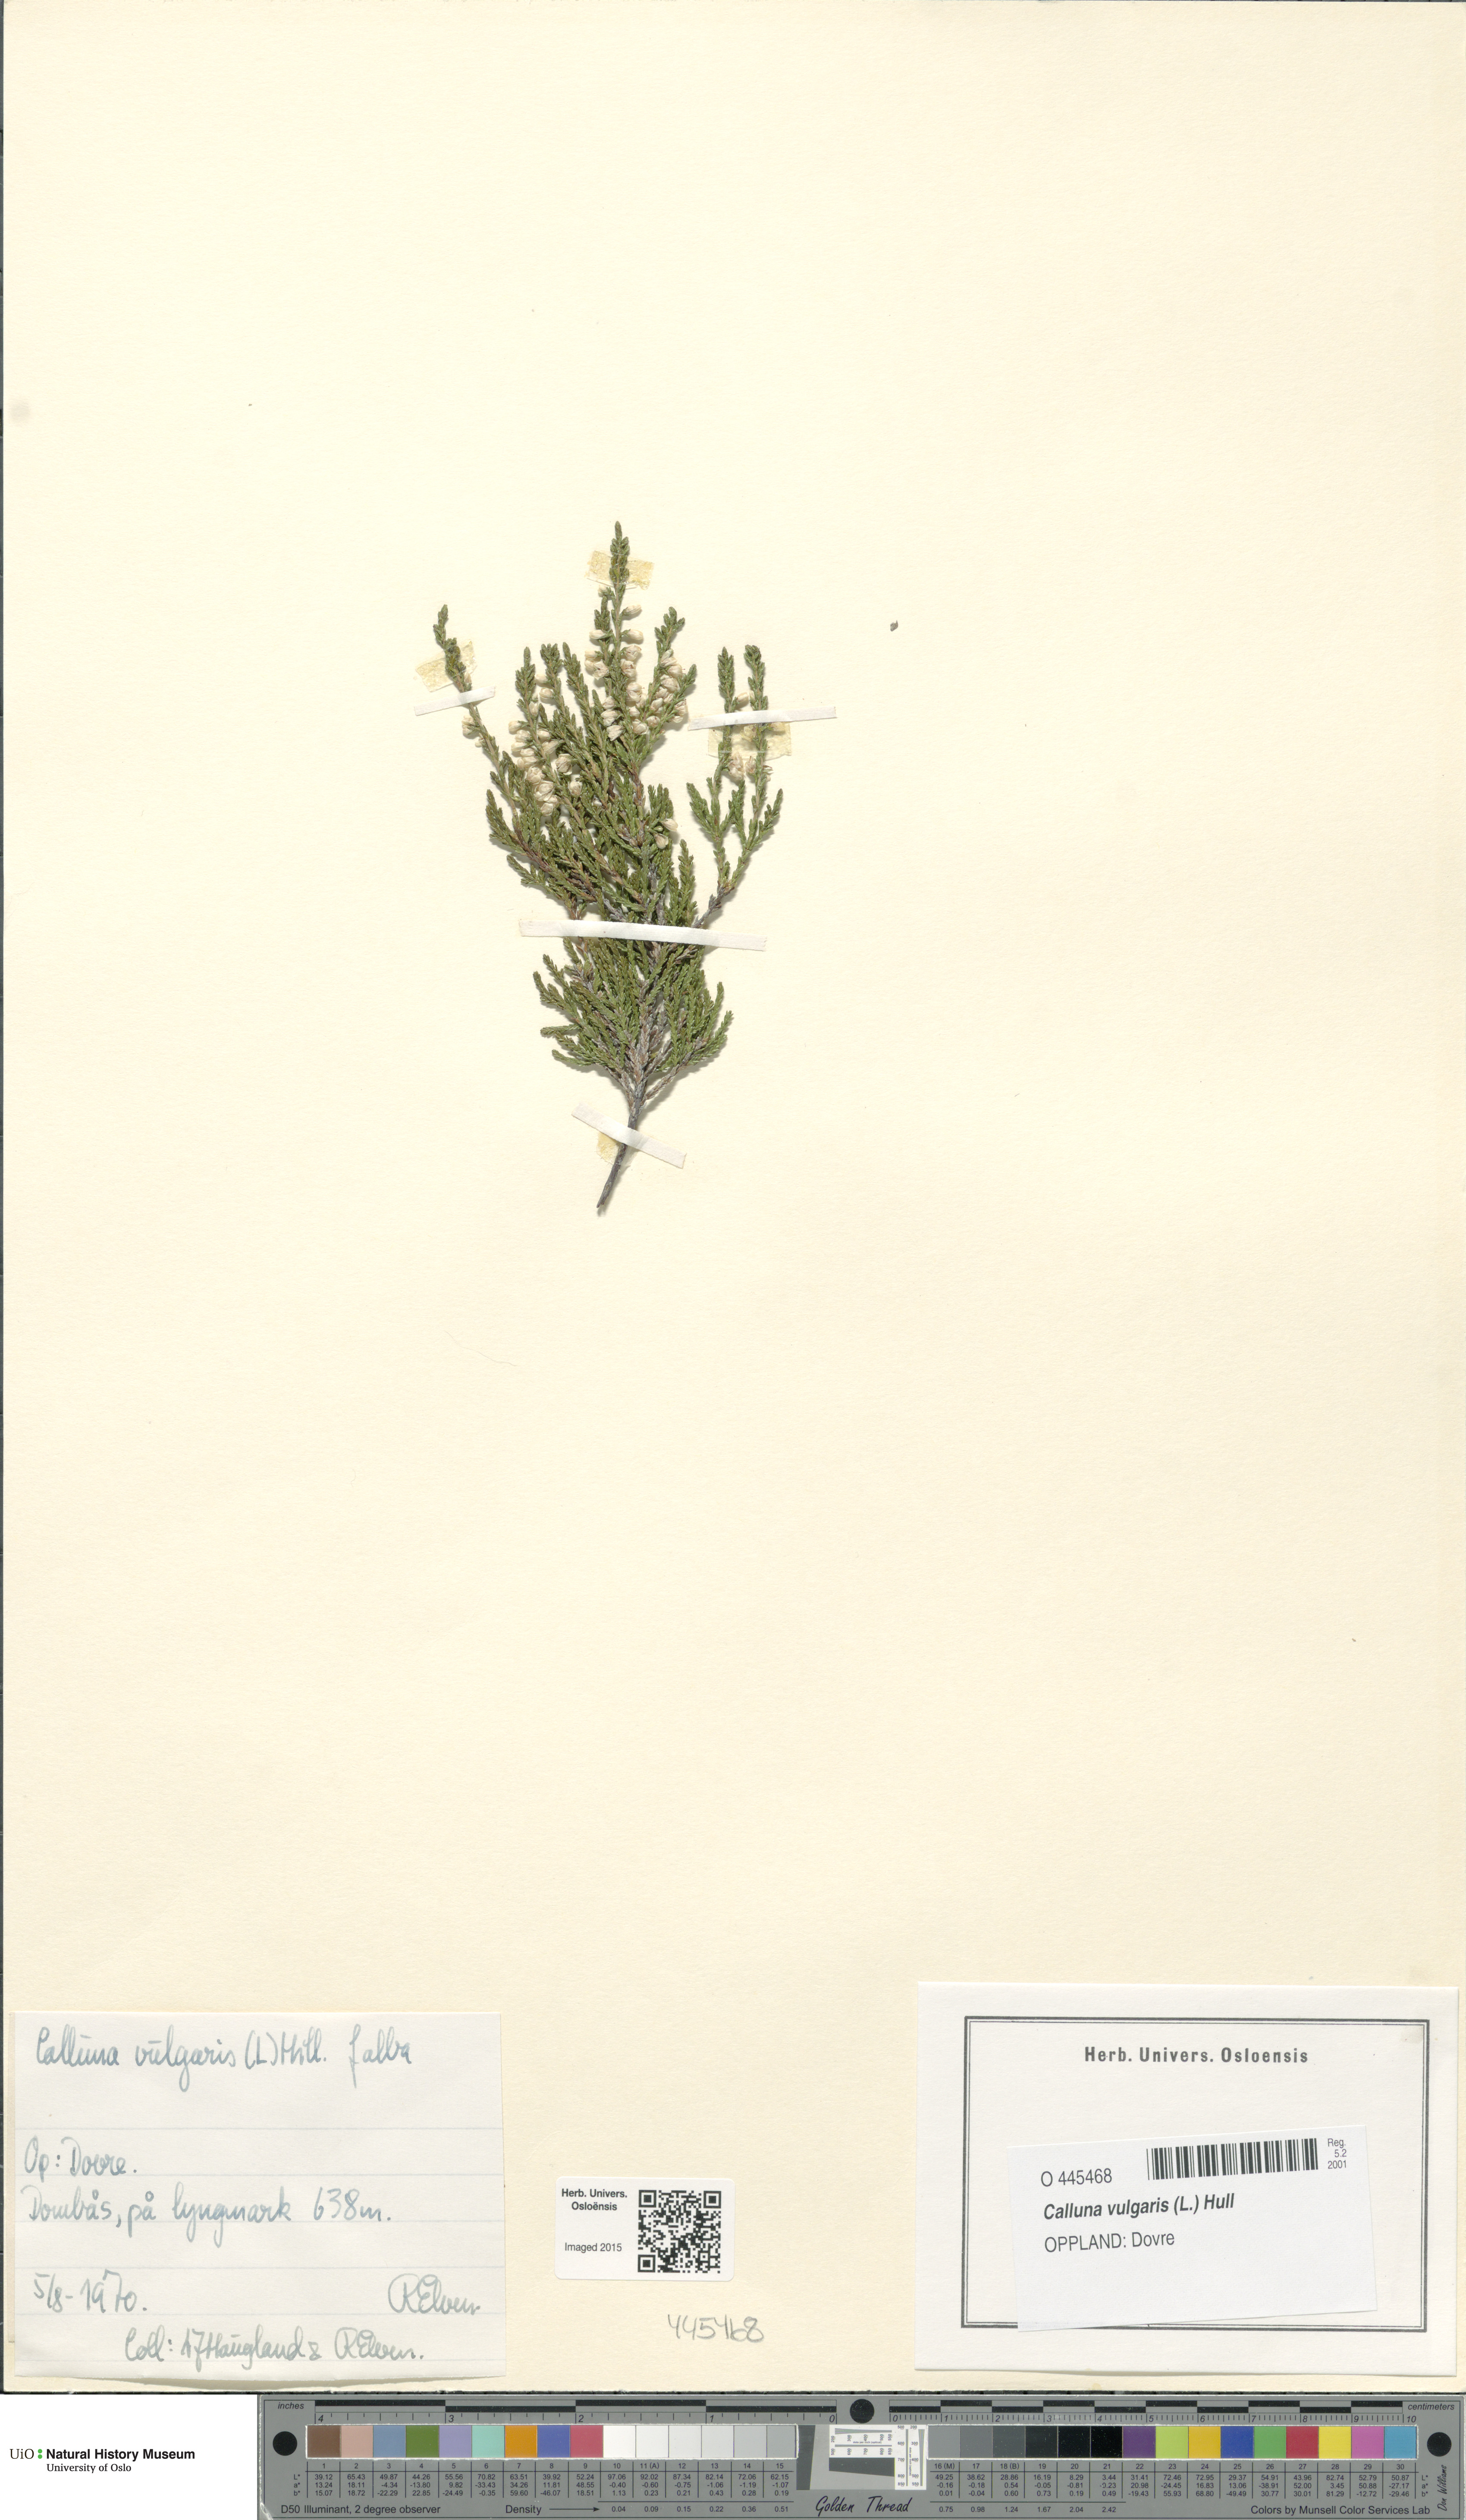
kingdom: Plantae
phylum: Tracheophyta
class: Magnoliopsida
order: Ericales
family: Ericaceae
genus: Calluna
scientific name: Calluna vulgaris
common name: Heather
